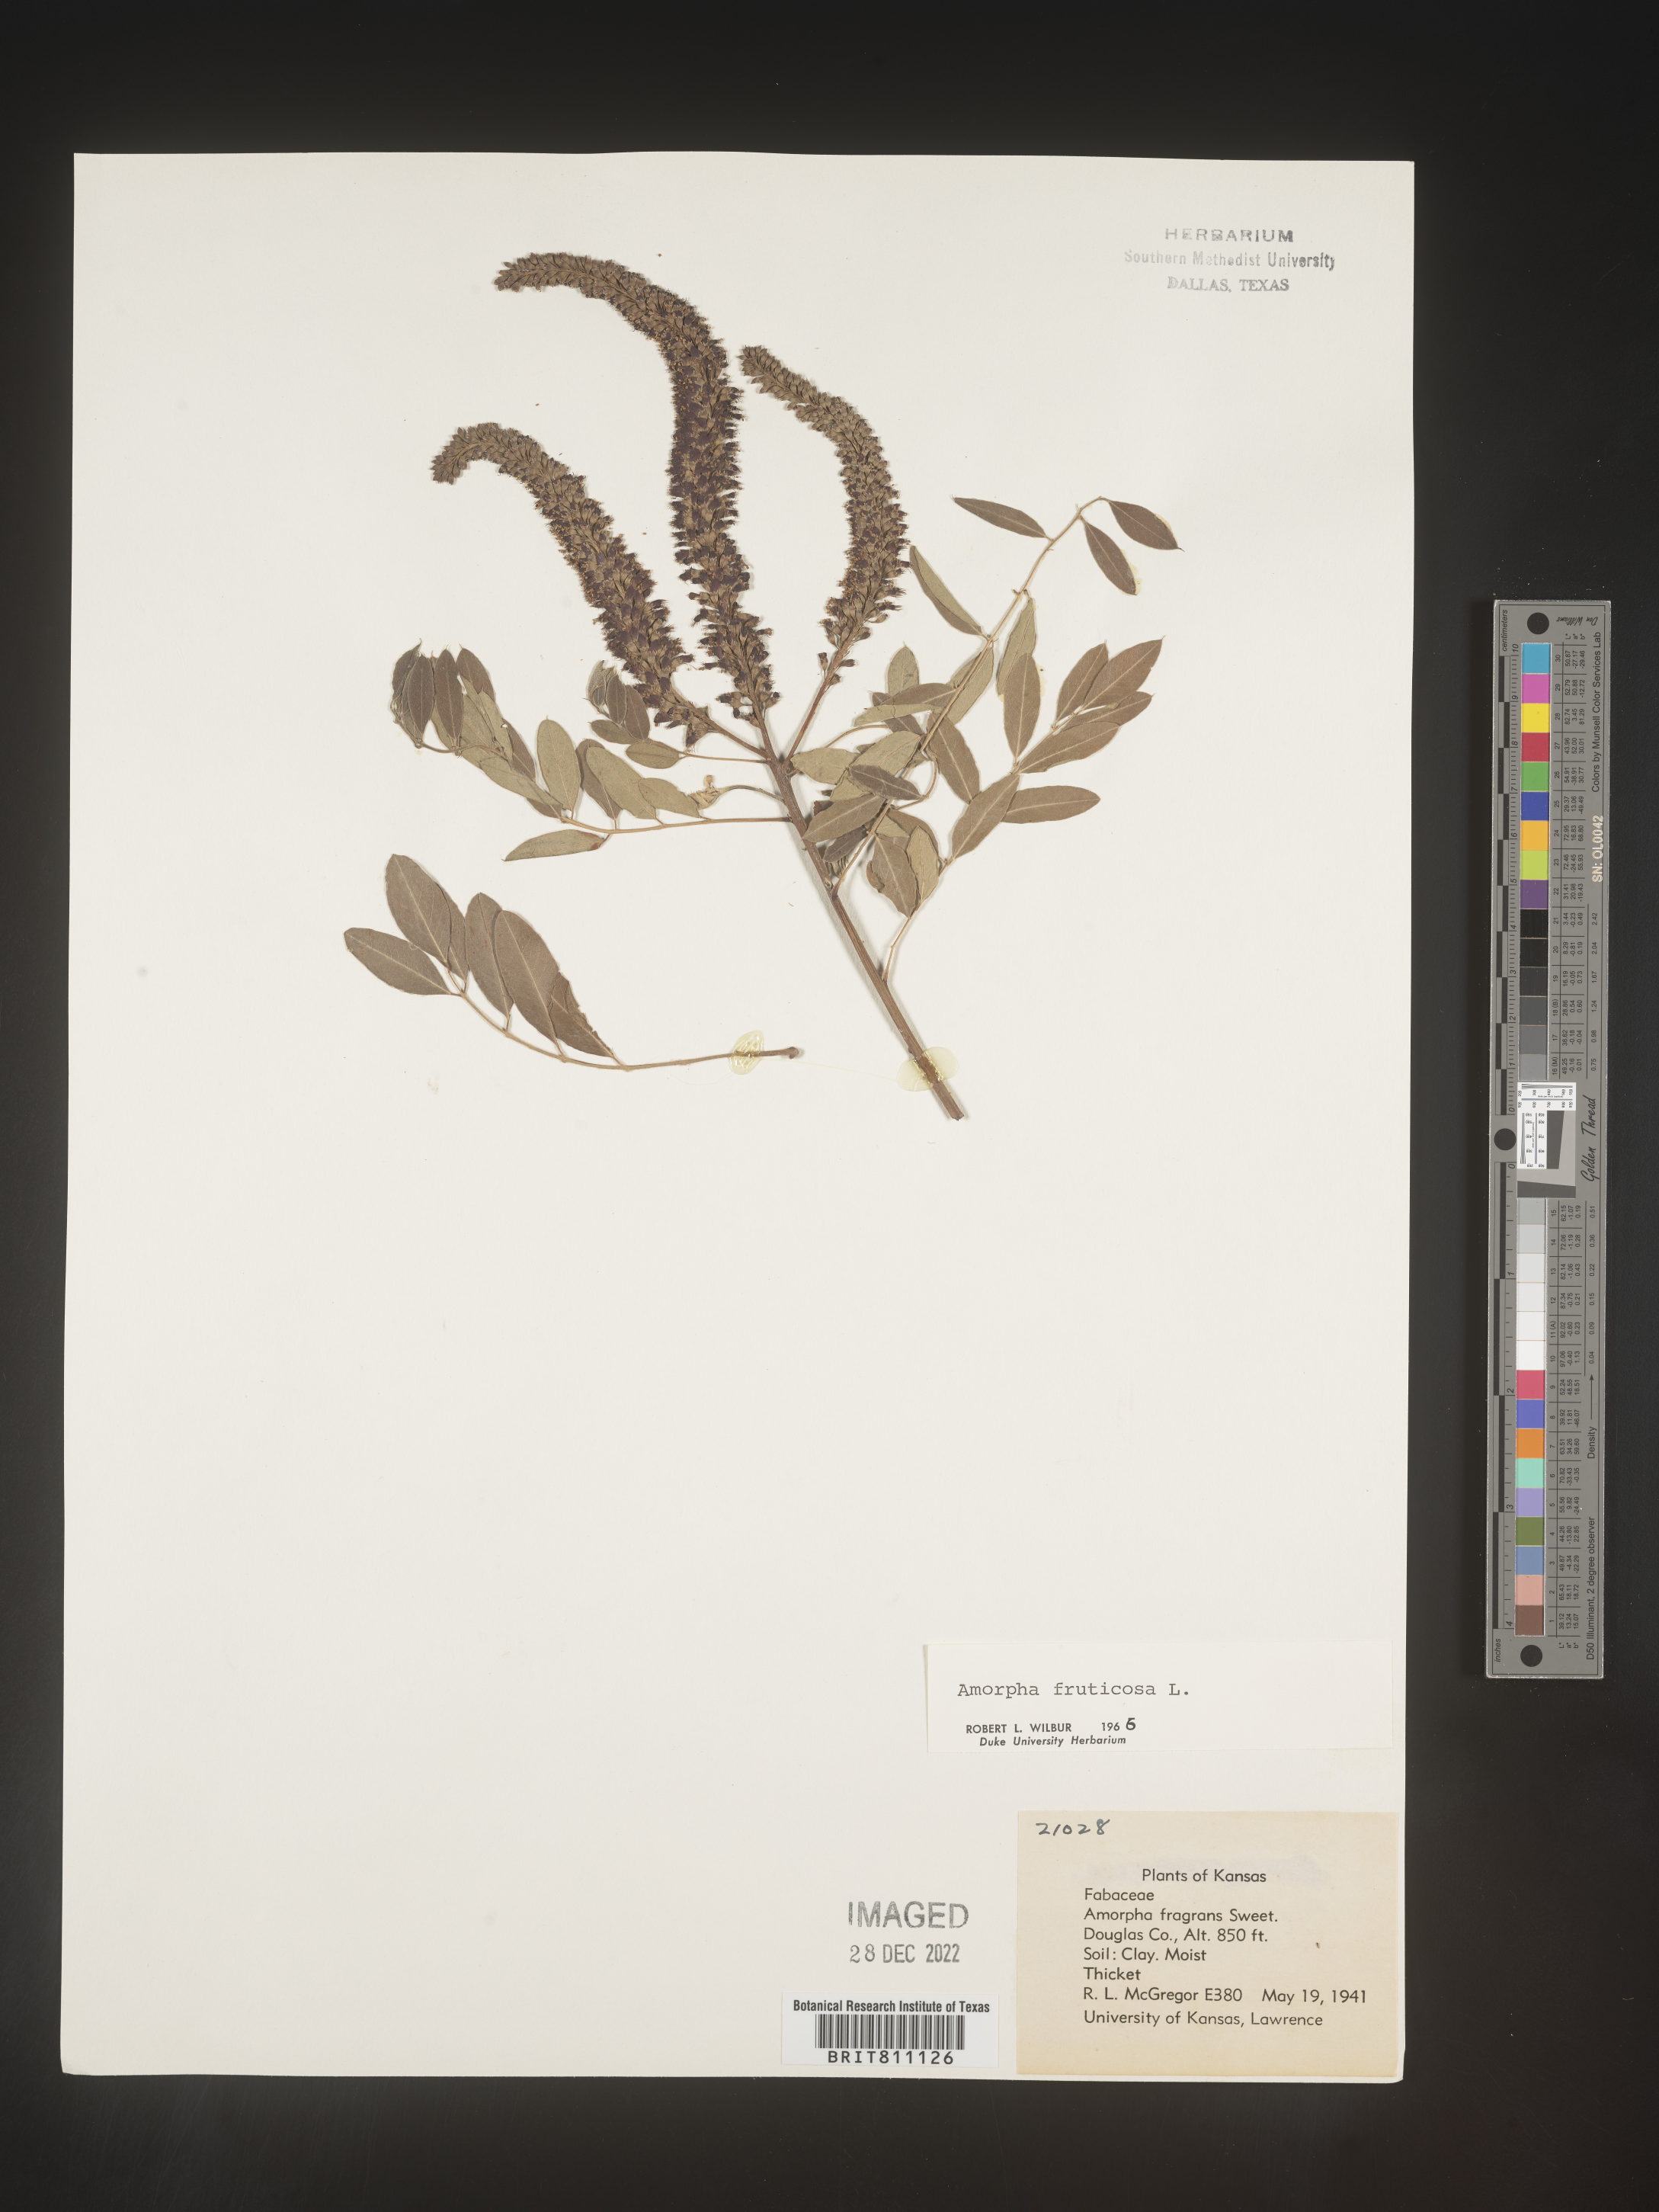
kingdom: Plantae
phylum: Tracheophyta
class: Magnoliopsida
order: Fabales
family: Fabaceae
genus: Amorpha
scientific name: Amorpha fruticosa
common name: False indigo
